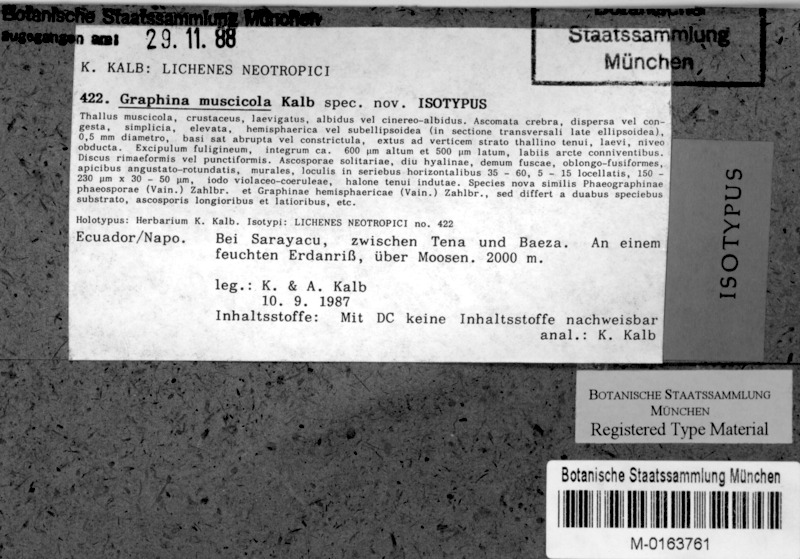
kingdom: Fungi
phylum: Ascomycota
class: Lecanoromycetes
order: Ostropales
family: Graphidaceae
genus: Allographa
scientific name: Allographa mexicana
